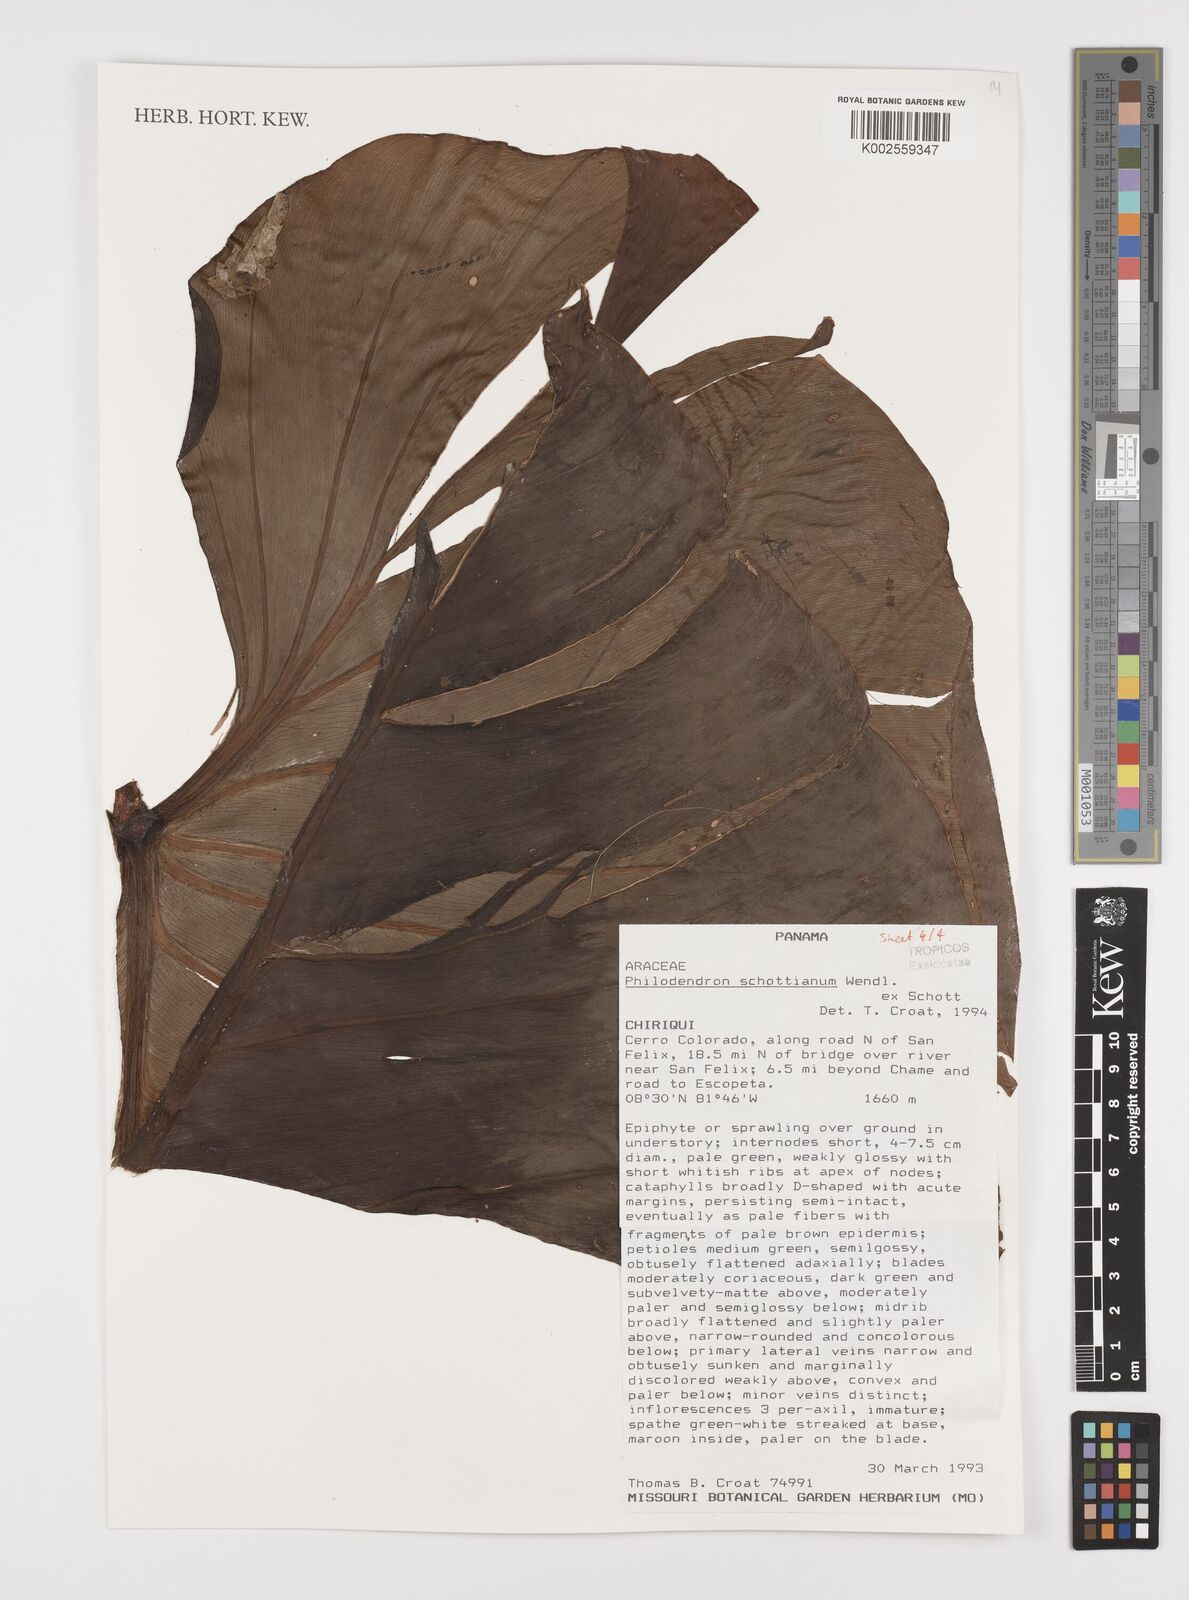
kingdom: Plantae
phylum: Tracheophyta
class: Liliopsida
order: Alismatales
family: Araceae
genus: Philodendron
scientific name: Philodendron schottianum
